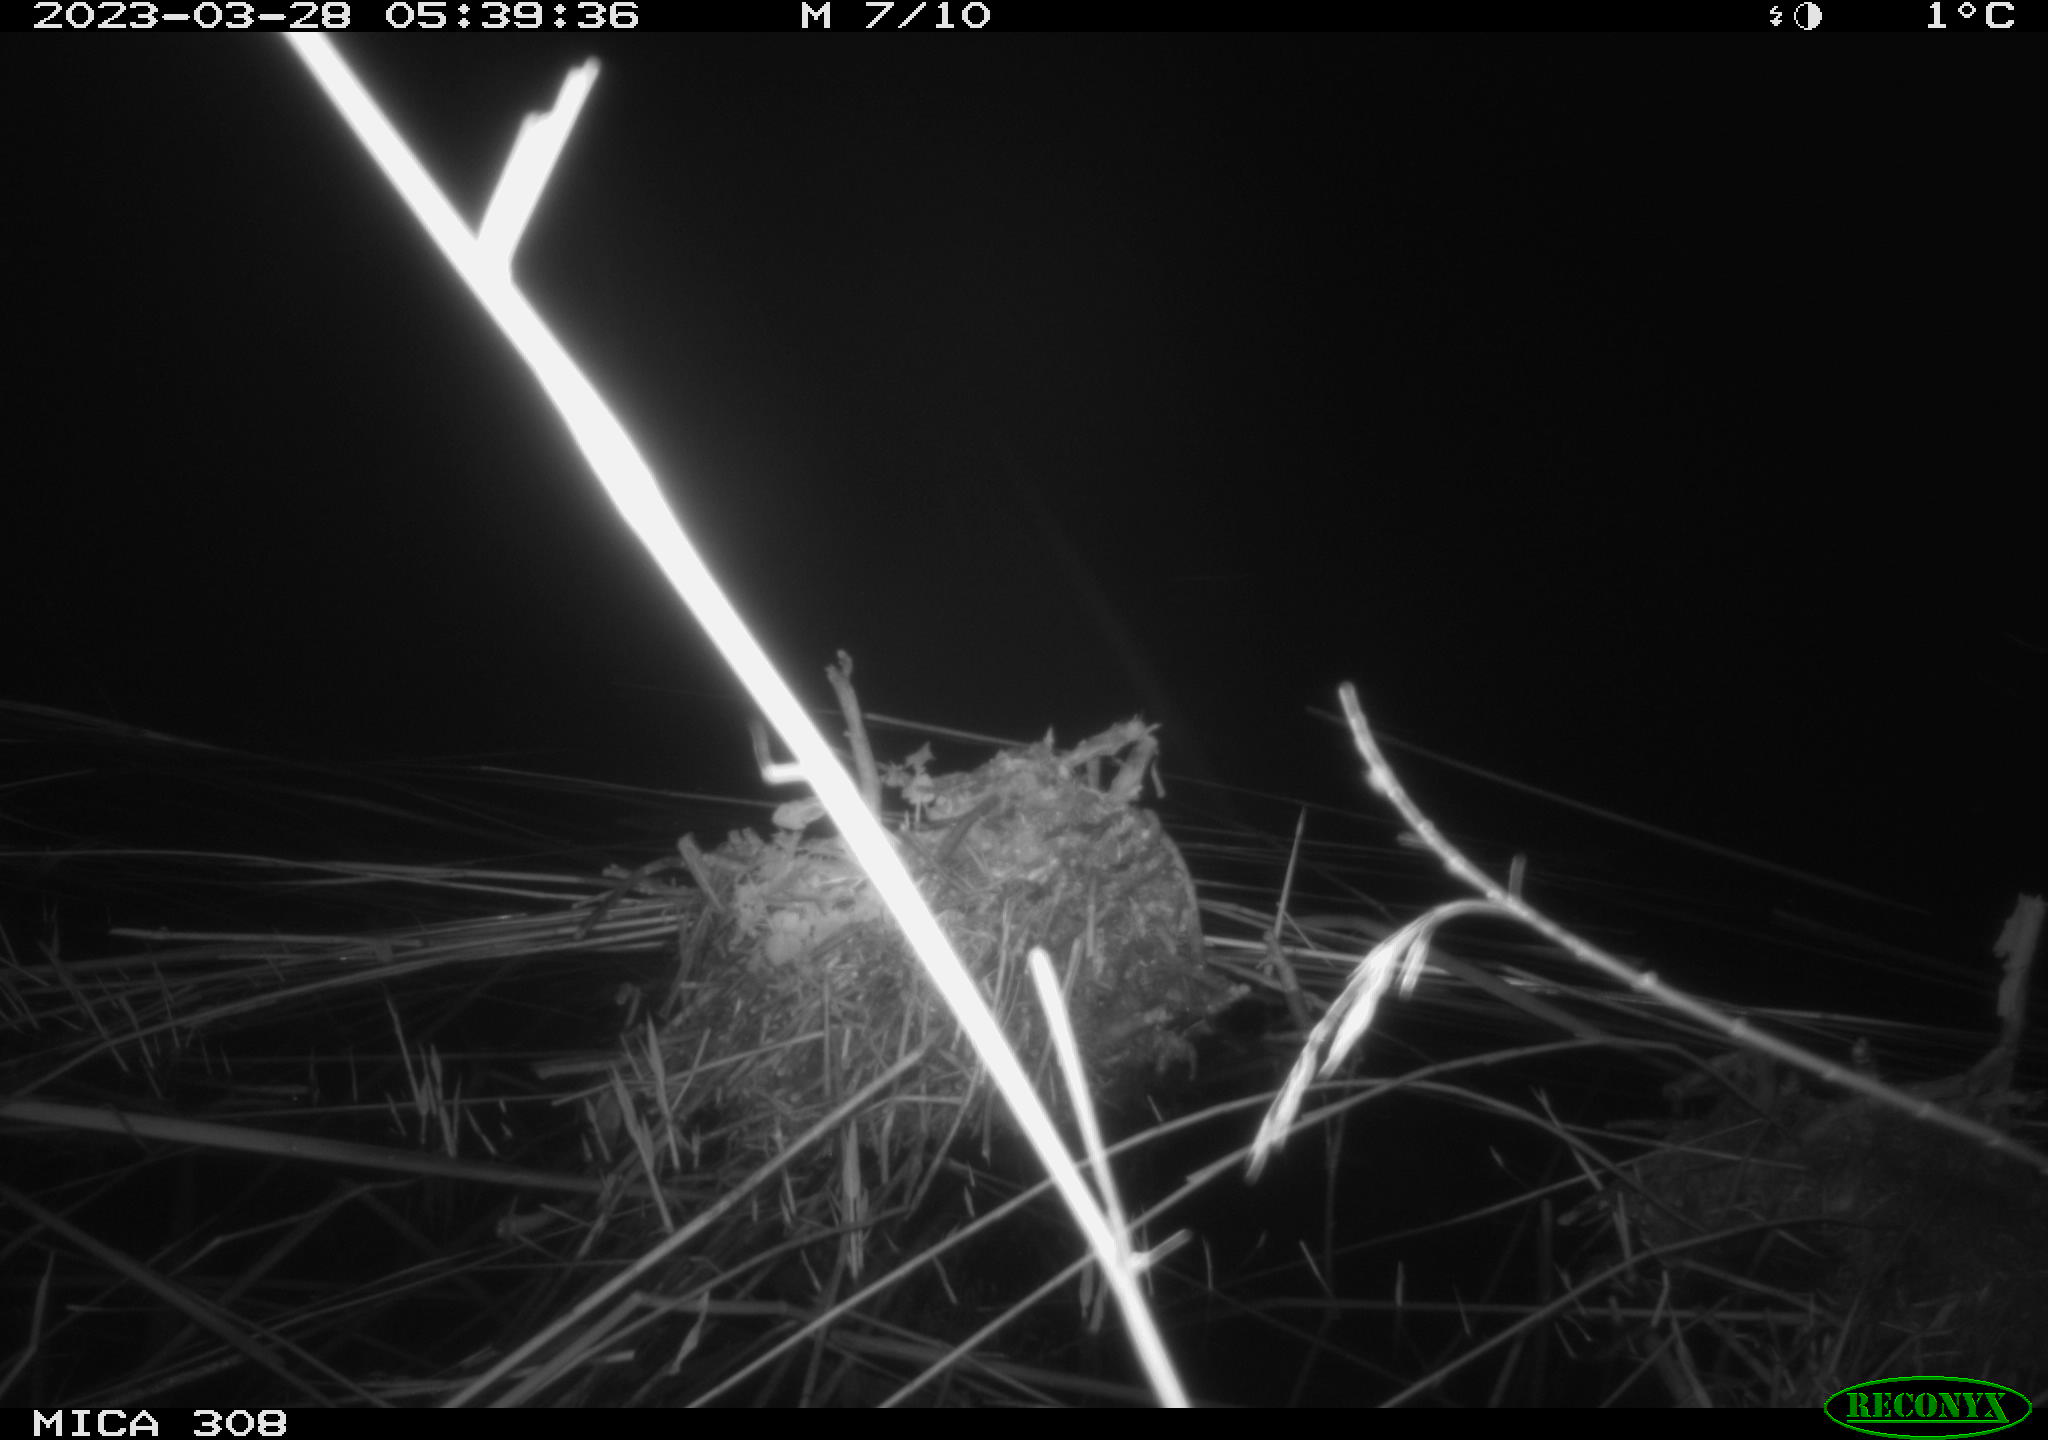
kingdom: Animalia
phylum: Chordata
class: Aves
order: Anseriformes
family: Anatidae
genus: Anas
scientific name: Anas
